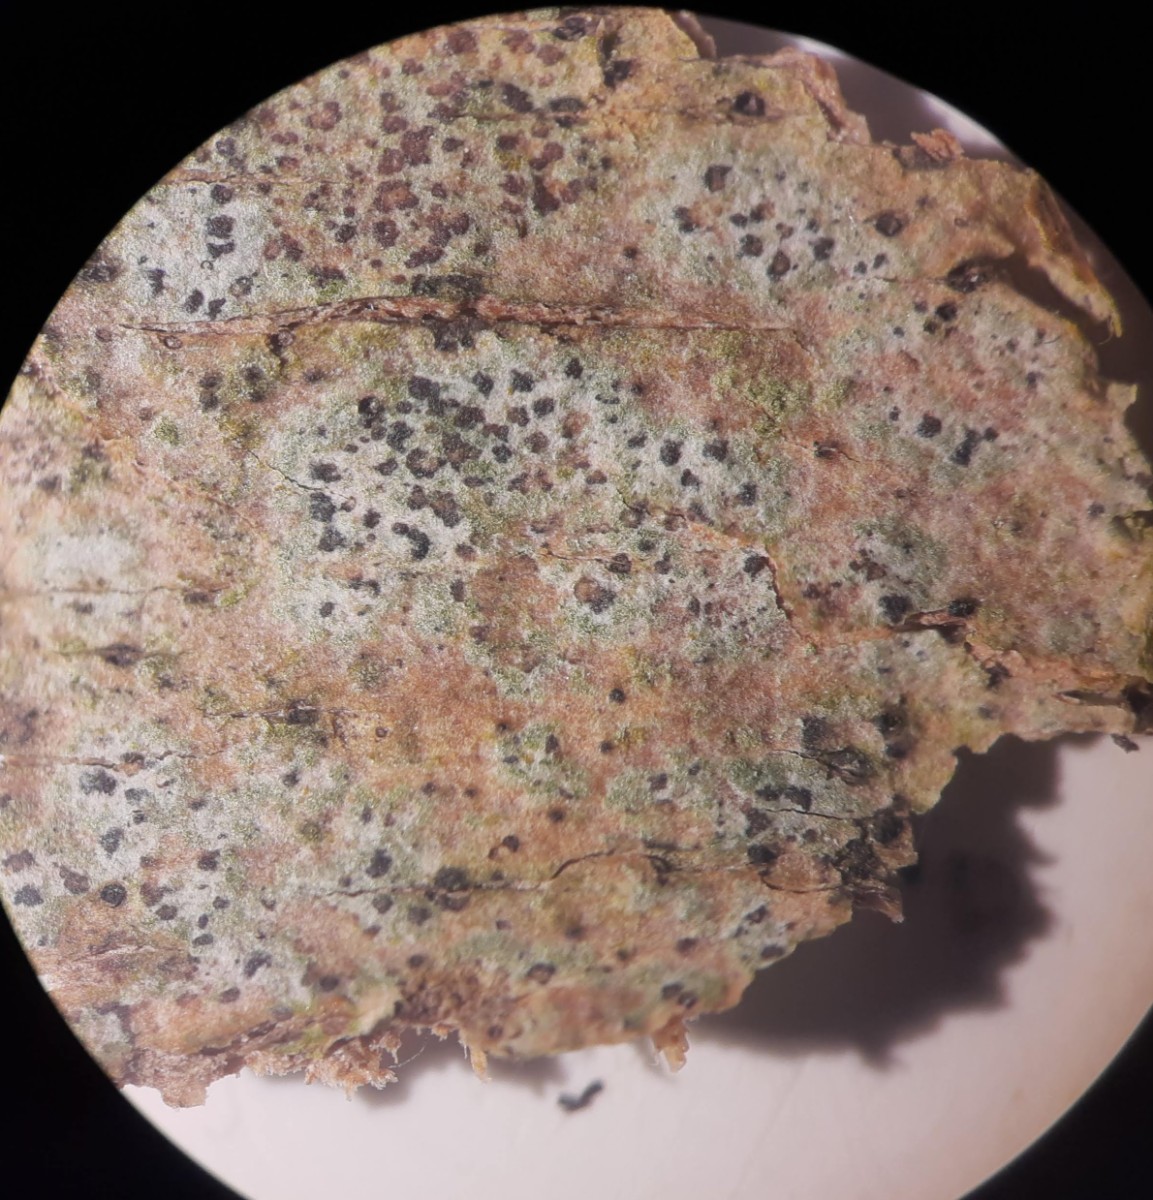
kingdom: Fungi
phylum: Ascomycota
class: Arthoniomycetes
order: Arthoniales
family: Arthoniaceae
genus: Arthonia
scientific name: Arthonia didyma
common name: oliven-pletlav
